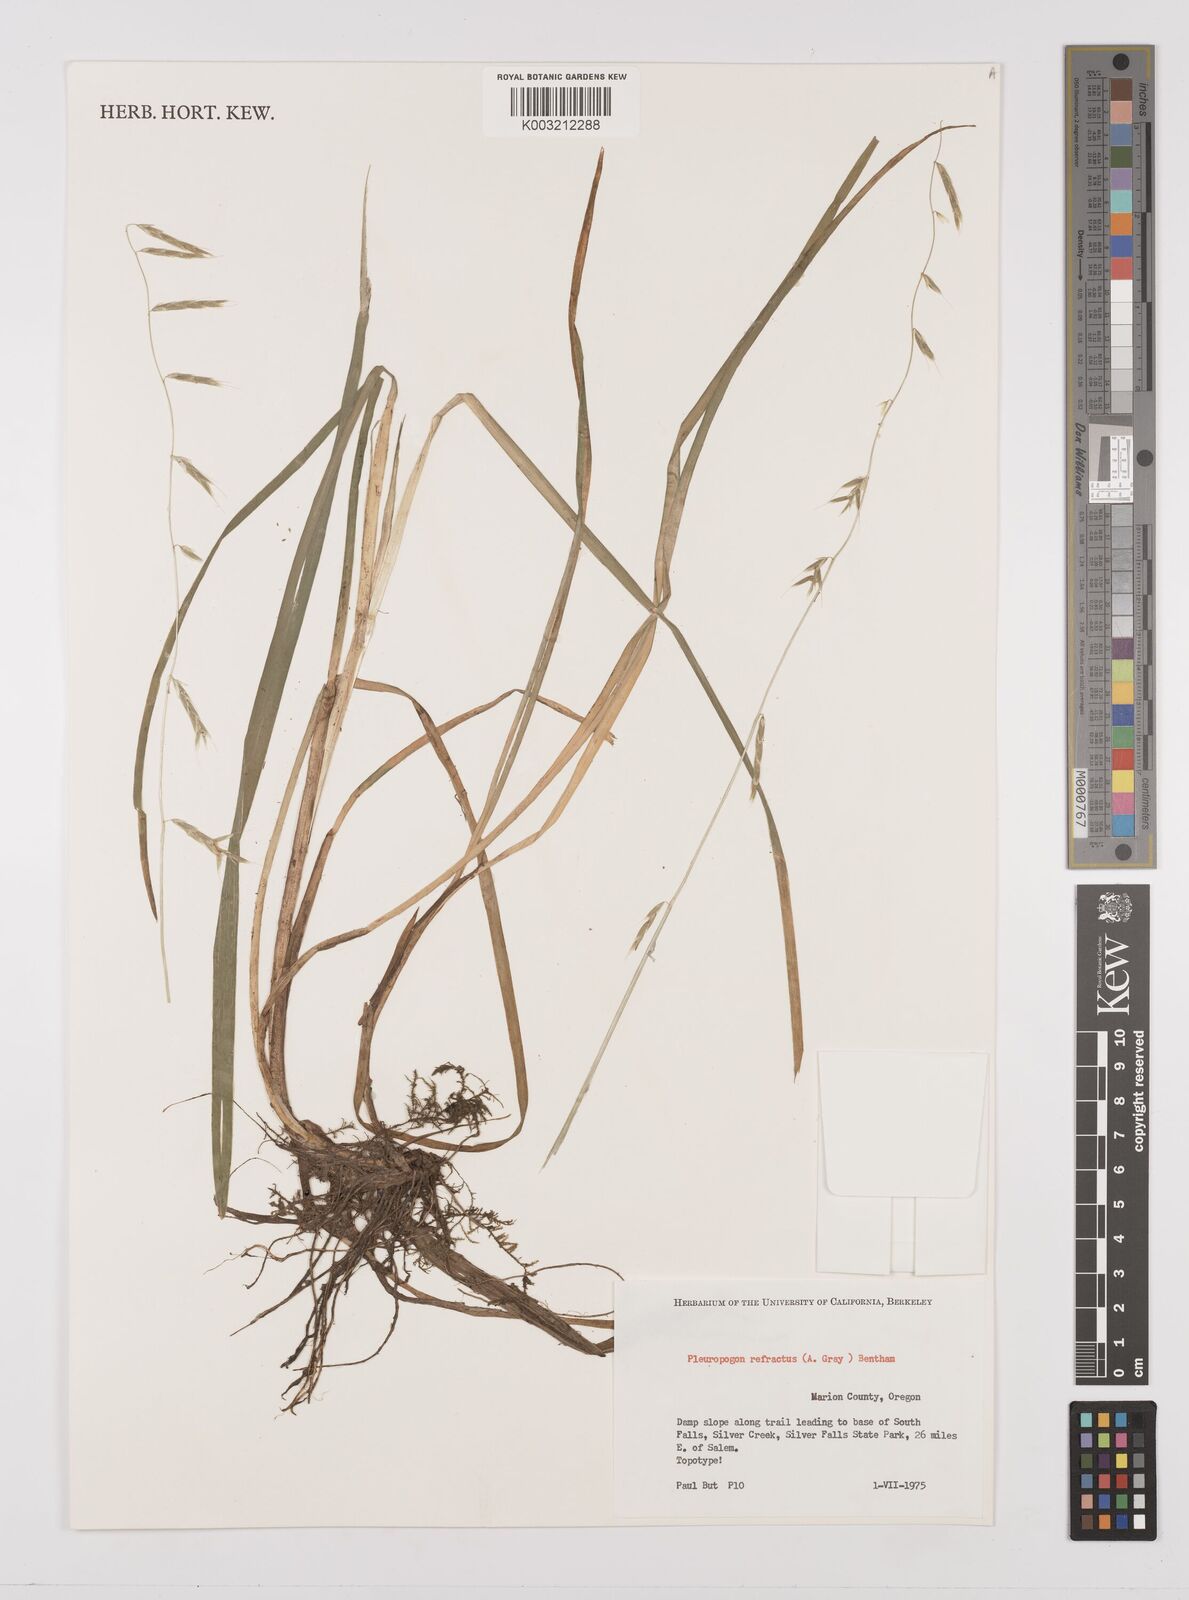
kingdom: Plantae
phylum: Tracheophyta
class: Liliopsida
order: Poales
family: Poaceae
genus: Pleuropogon
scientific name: Pleuropogon refractus
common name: Nodding false semaphoregrass
